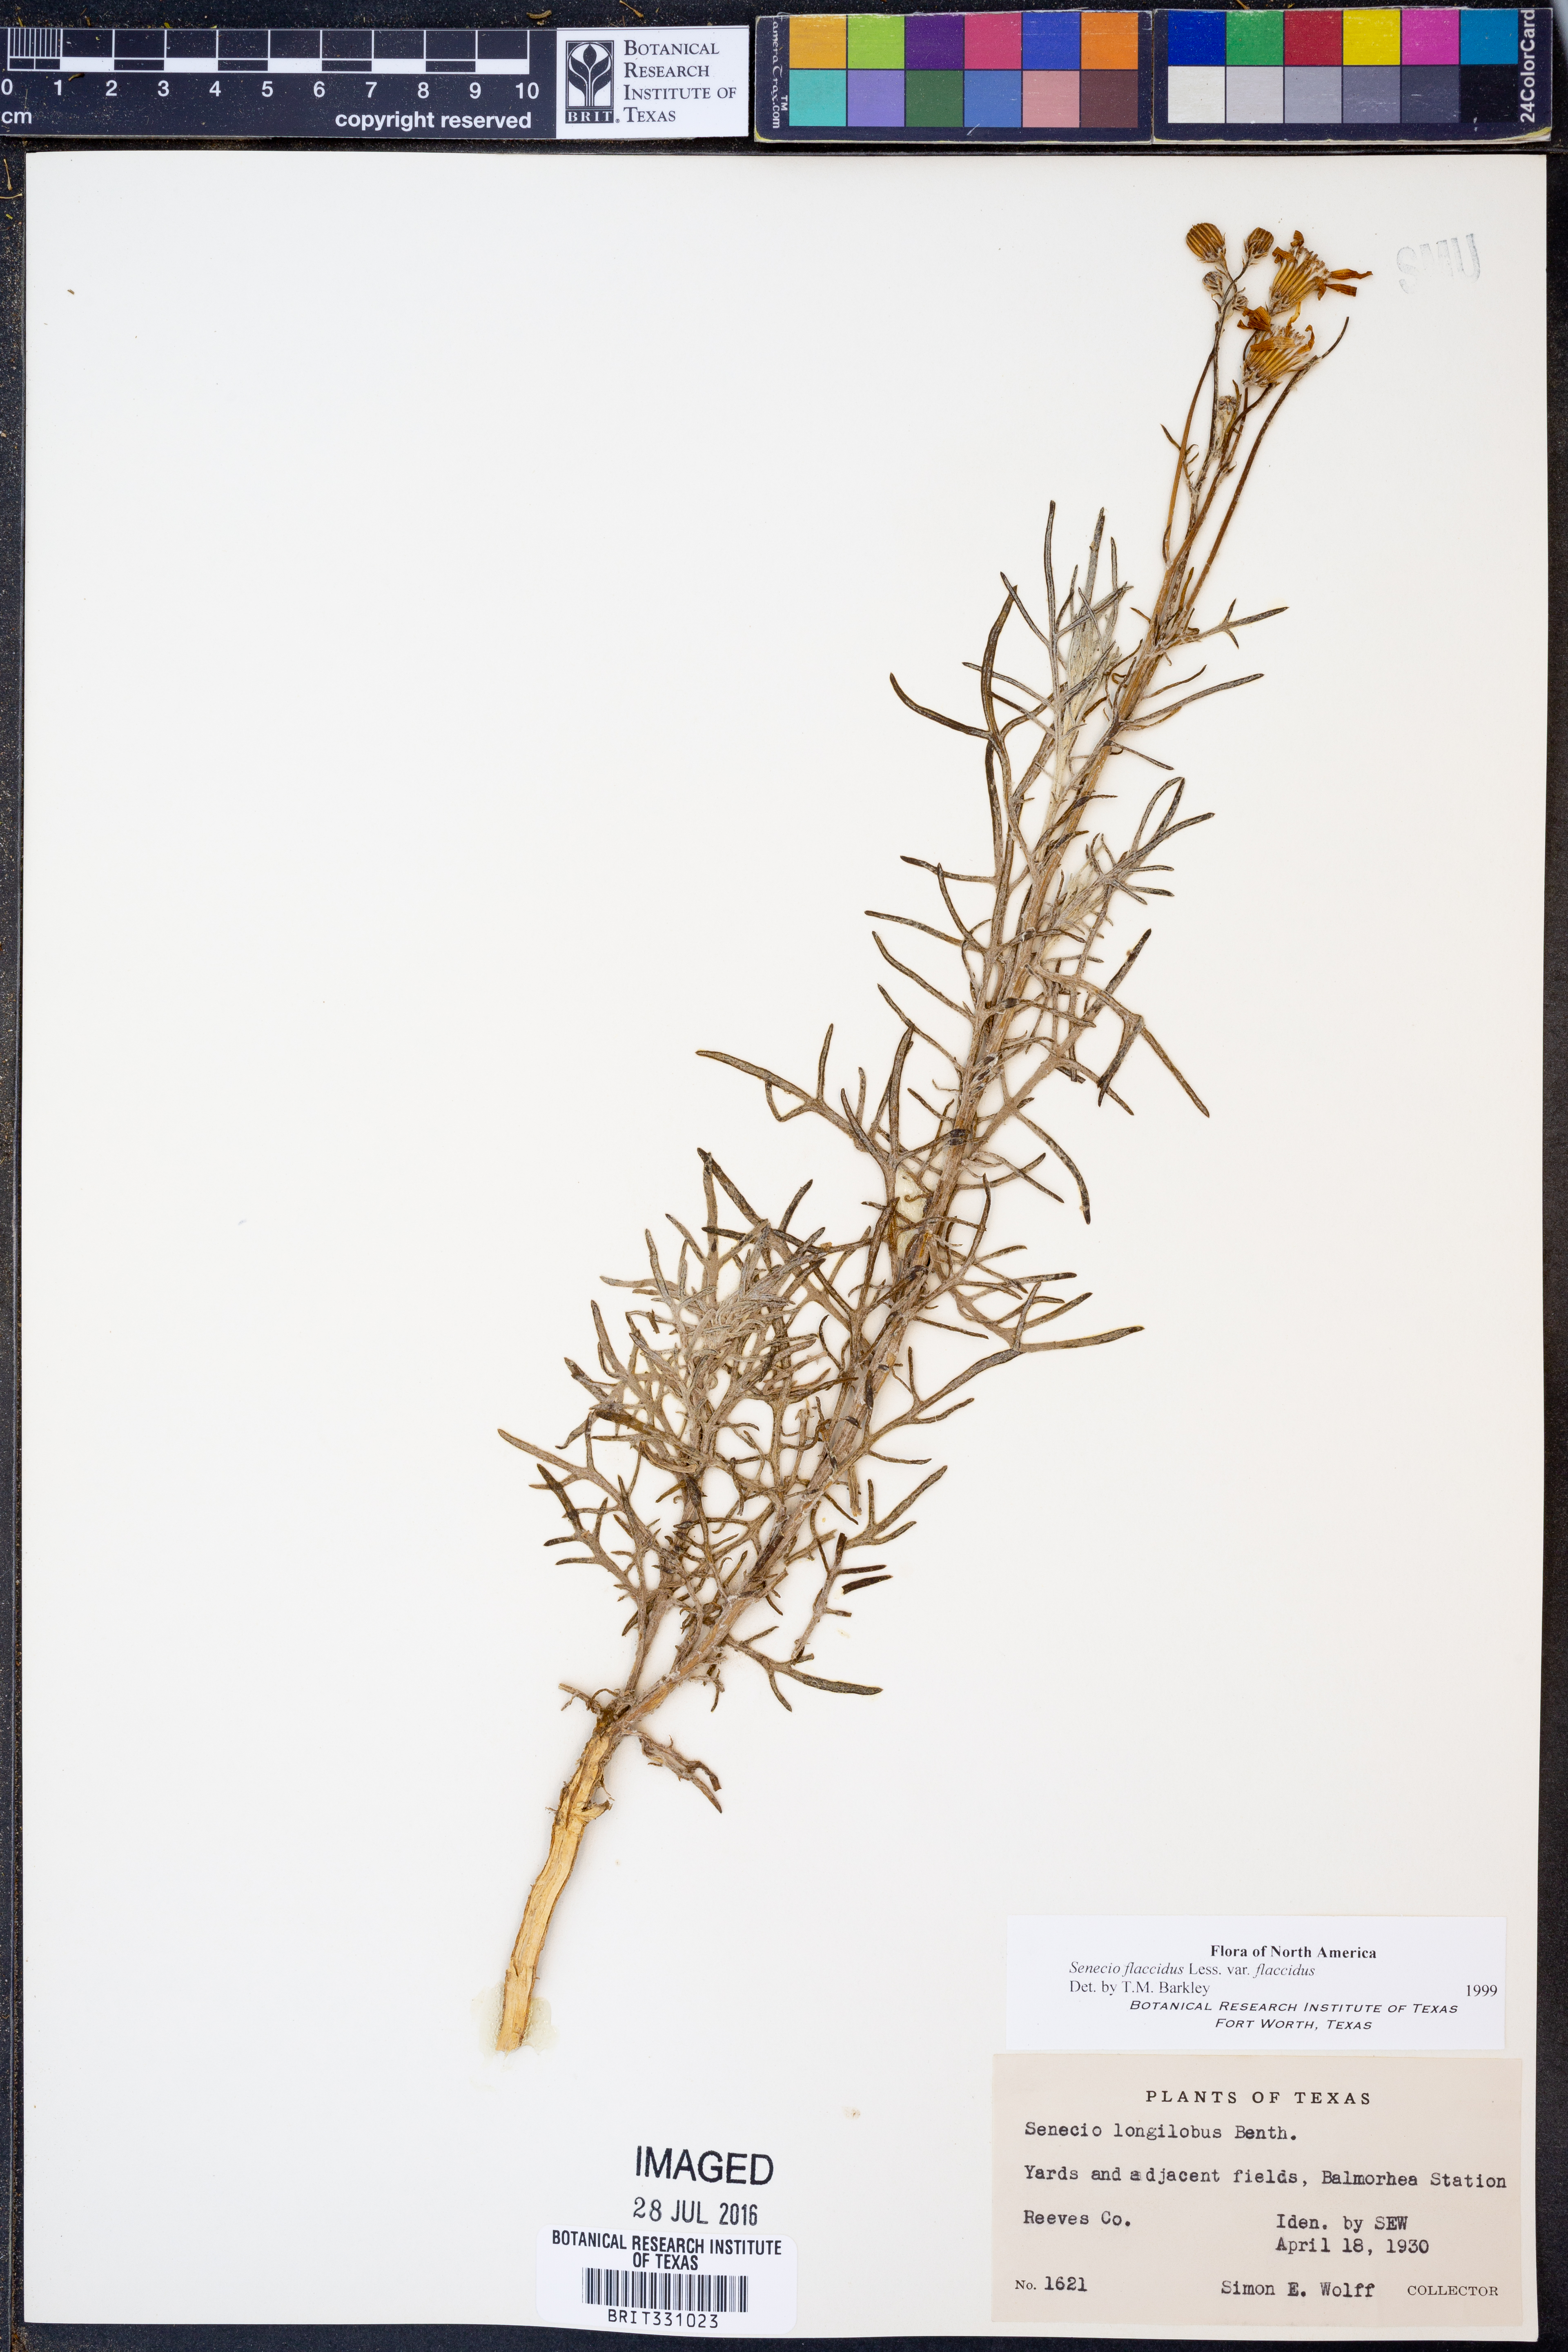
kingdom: Plantae
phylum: Tracheophyta
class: Magnoliopsida
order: Asterales
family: Asteraceae
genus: Senecio
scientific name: Senecio flaccidus
